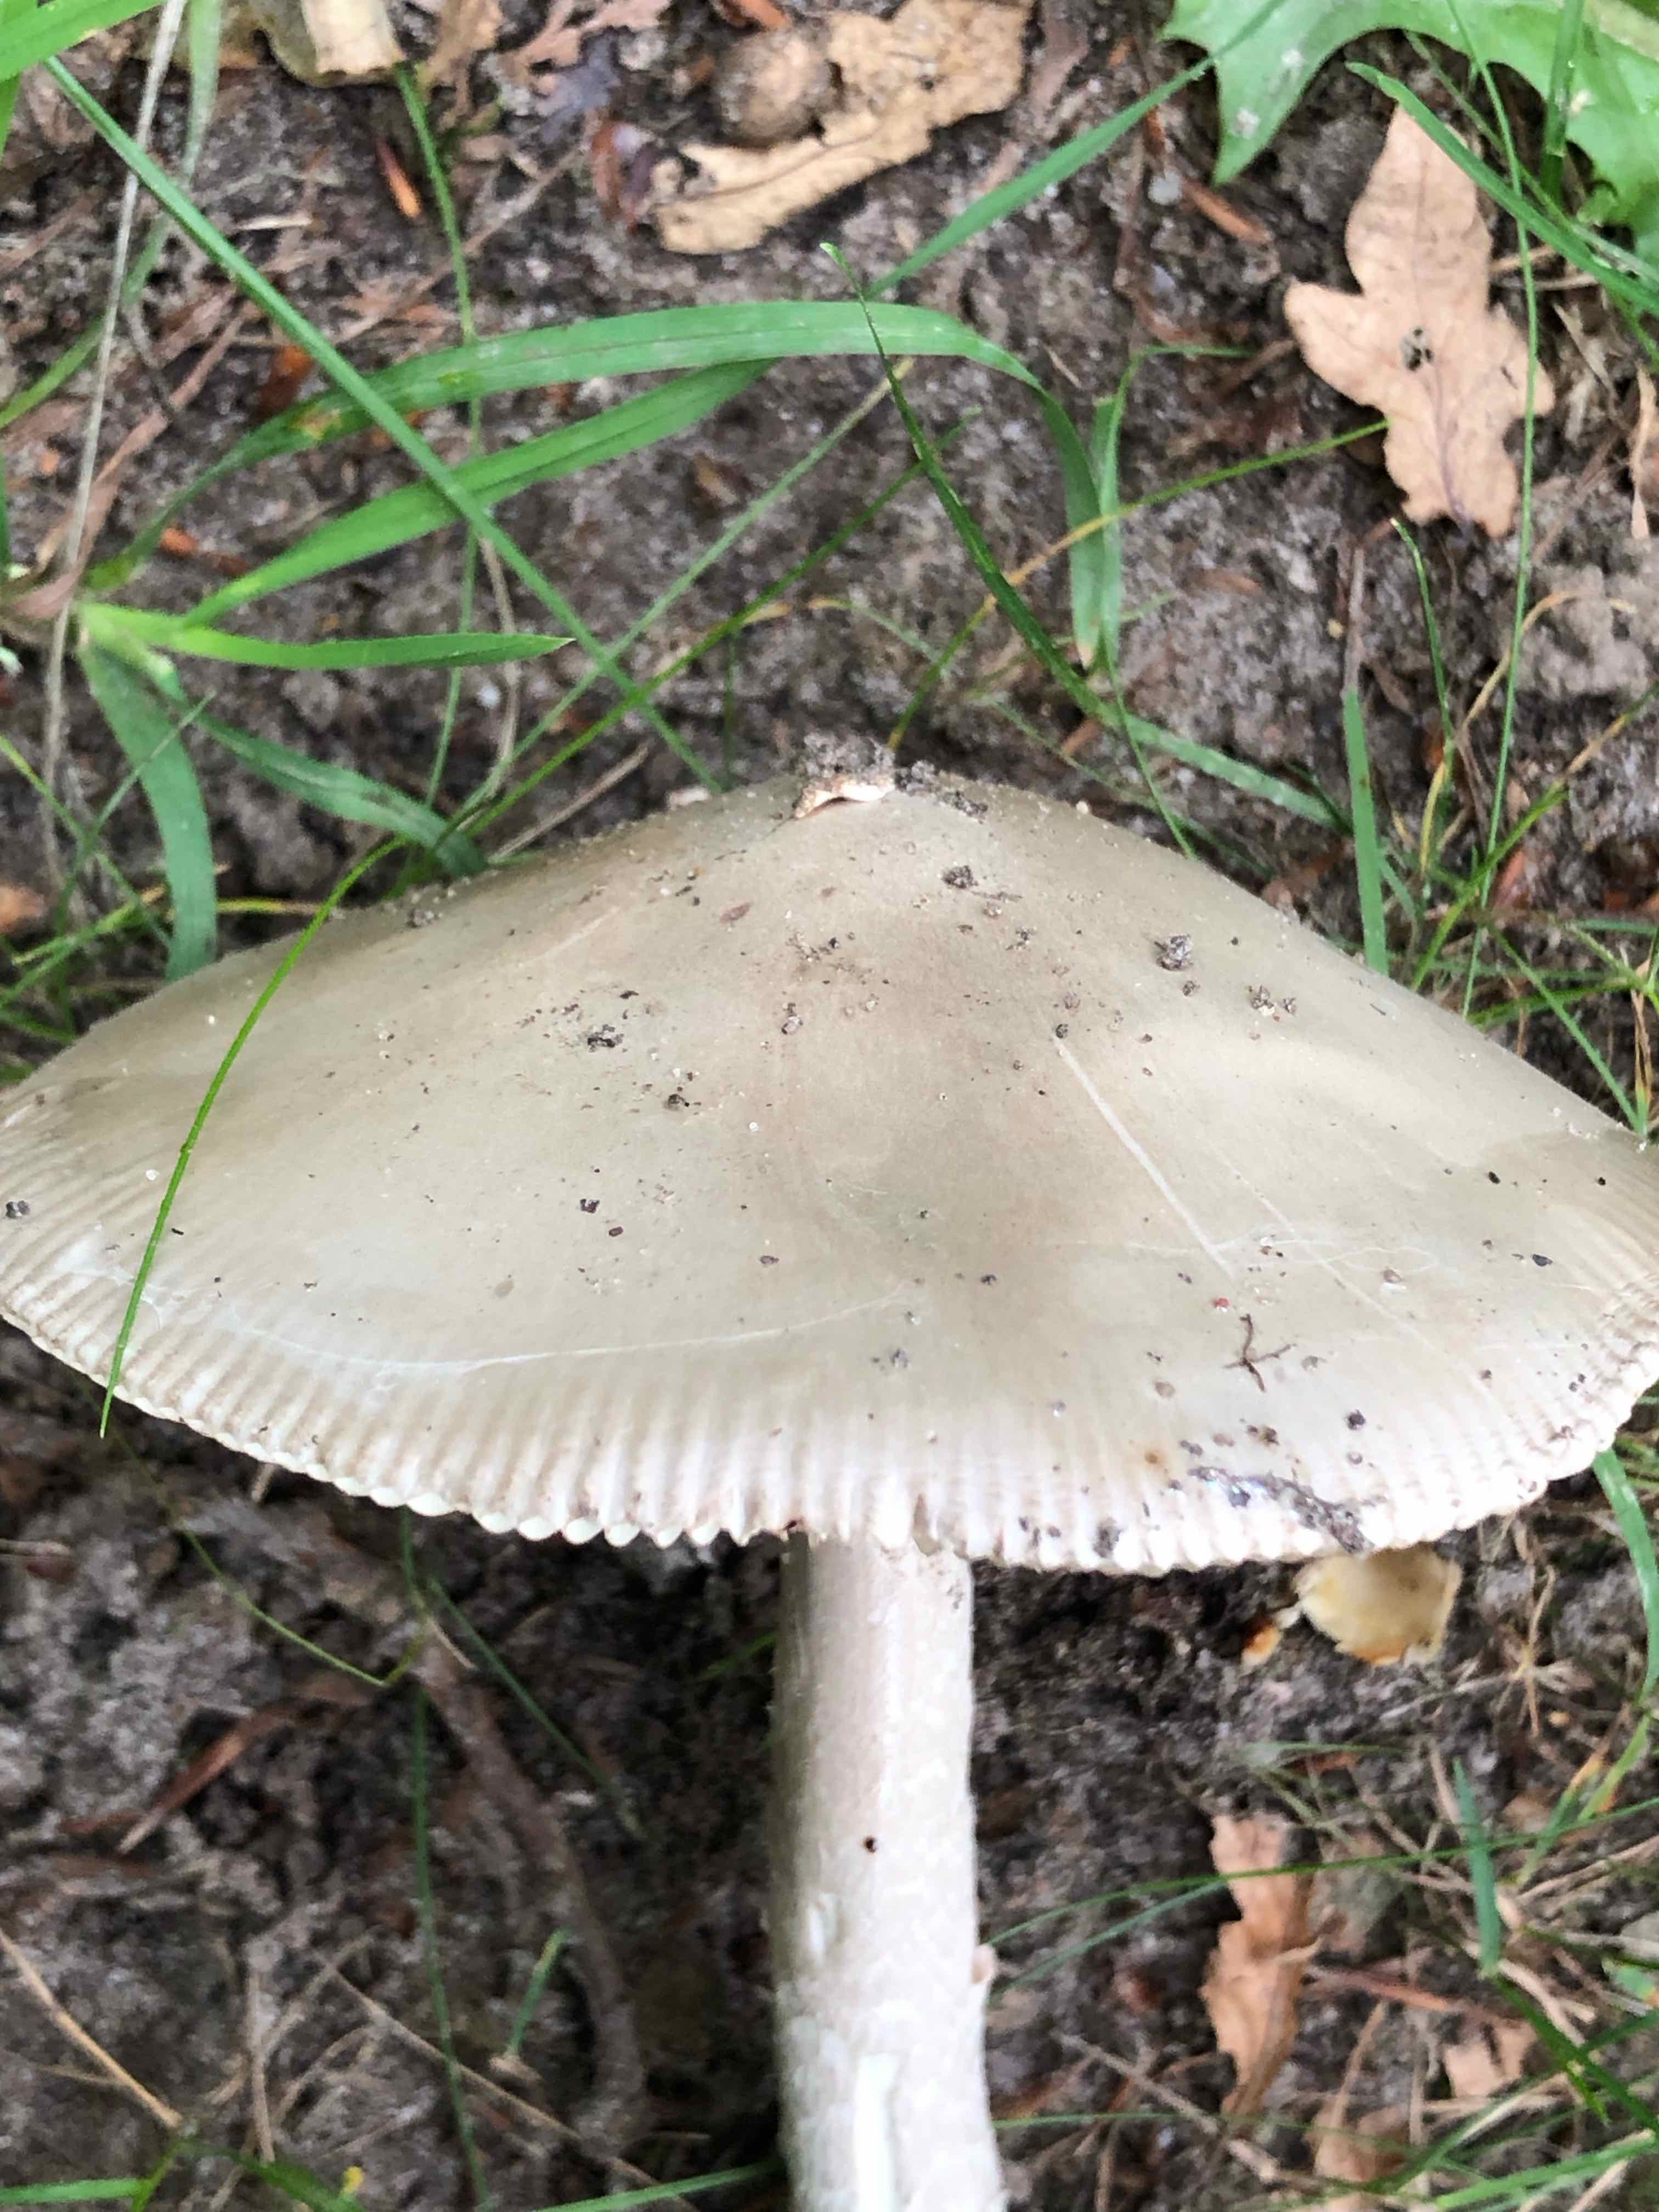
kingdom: Fungi
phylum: Basidiomycota
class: Agaricomycetes
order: Agaricales
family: Amanitaceae
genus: Amanita
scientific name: Amanita
